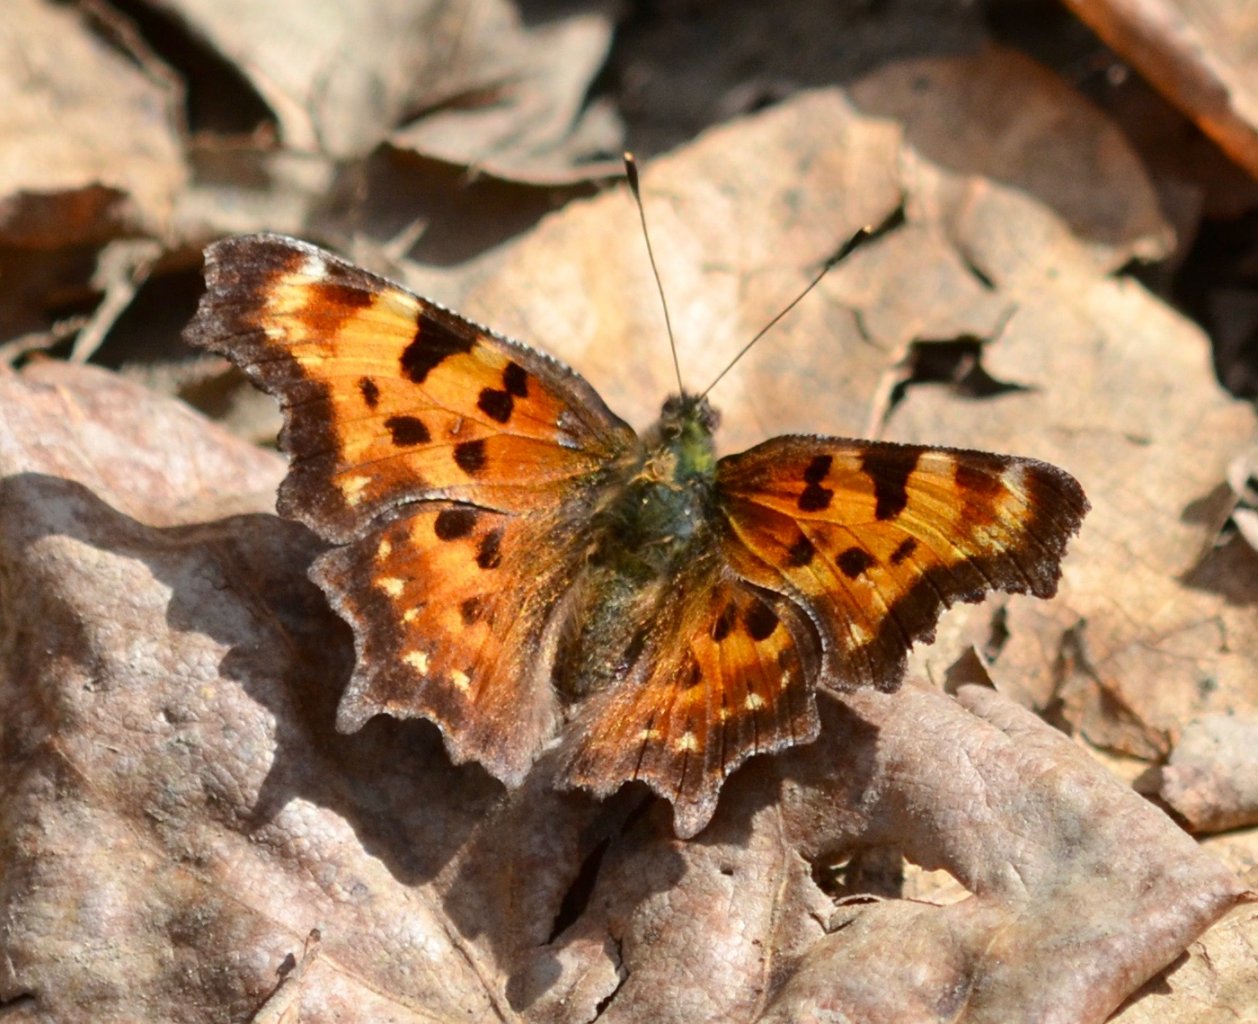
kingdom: Animalia
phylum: Arthropoda
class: Insecta
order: Lepidoptera
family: Nymphalidae
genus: Polygonia
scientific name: Polygonia faunus
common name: Green Comma
